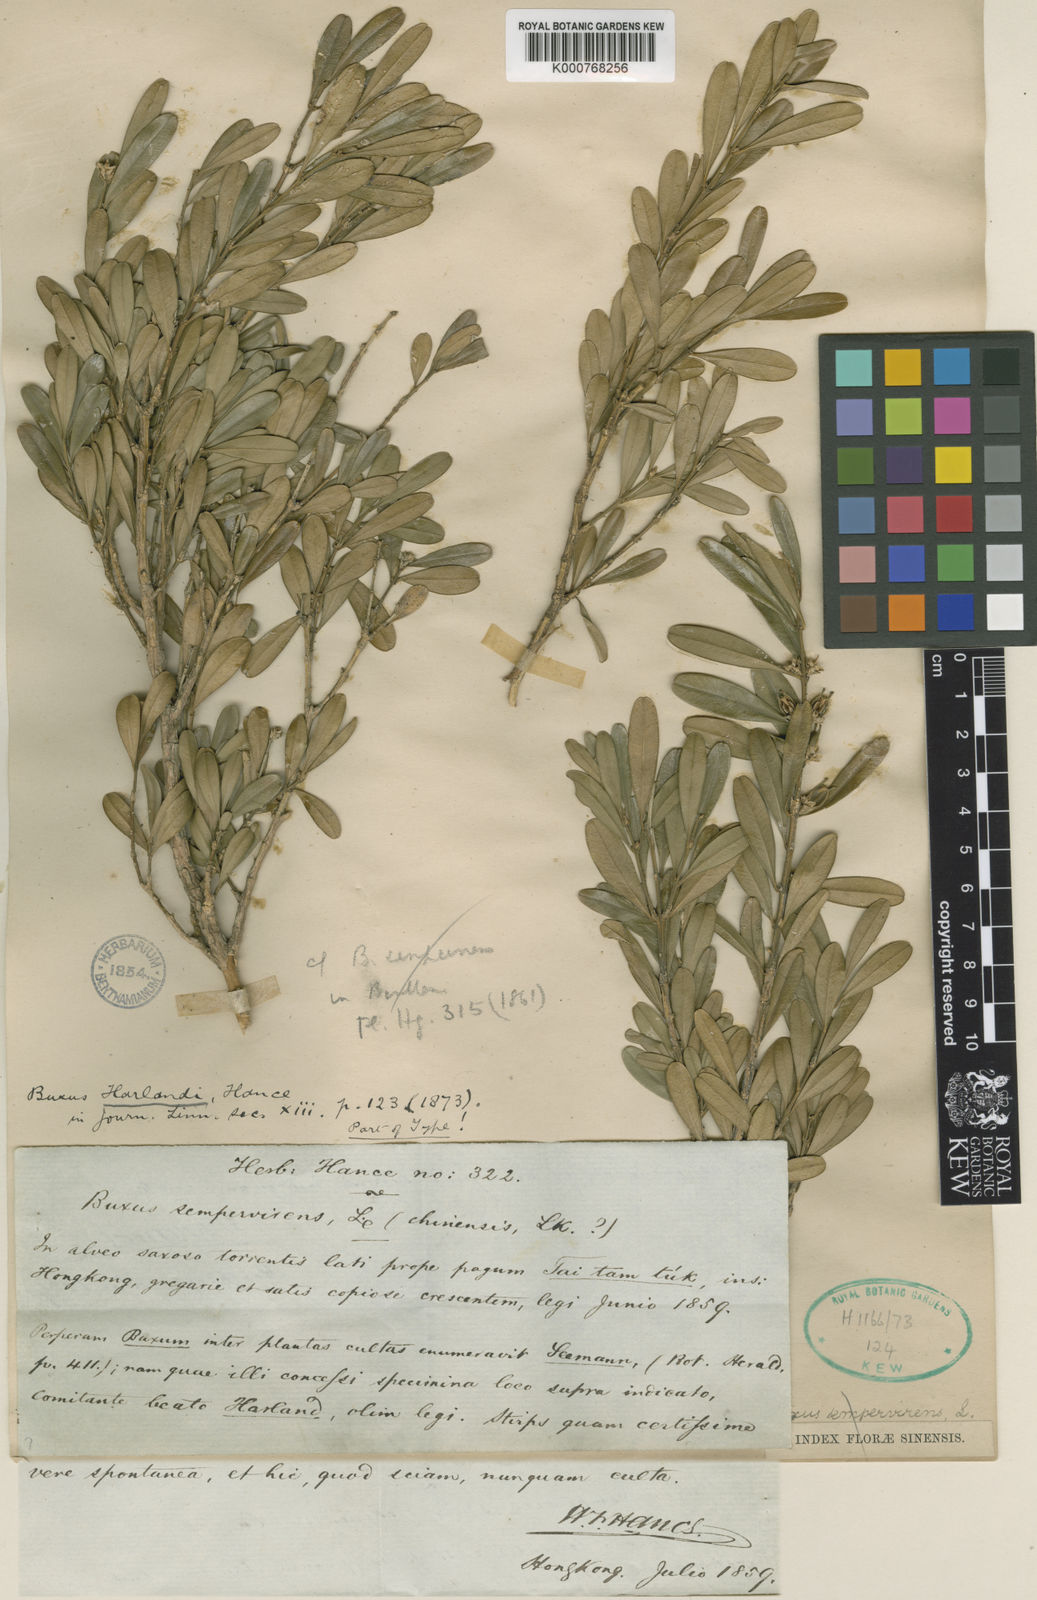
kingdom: Plantae
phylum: Tracheophyta
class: Magnoliopsida
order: Buxales
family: Buxaceae
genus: Buxus
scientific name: Buxus harlandii
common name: Harland's boxwood
